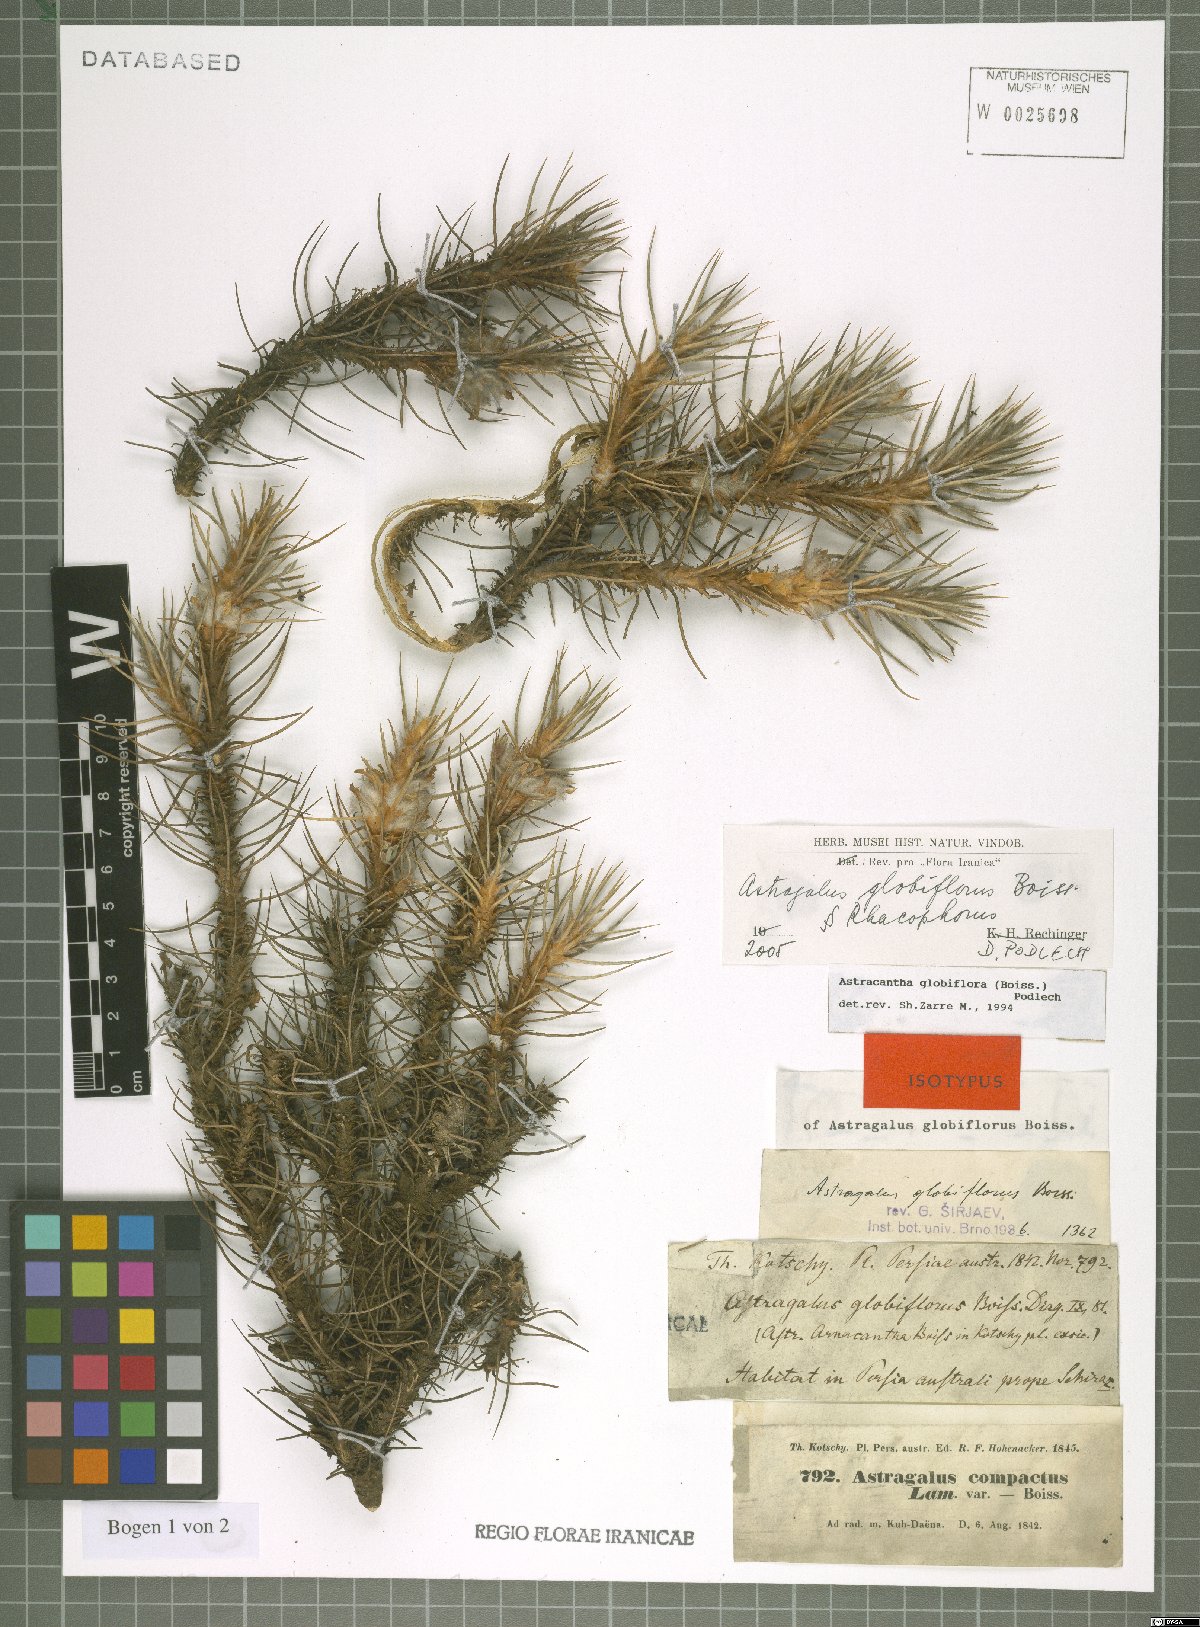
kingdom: Plantae
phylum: Tracheophyta
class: Magnoliopsida
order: Fabales
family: Fabaceae
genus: Astragalus
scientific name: Astragalus globiflorus
